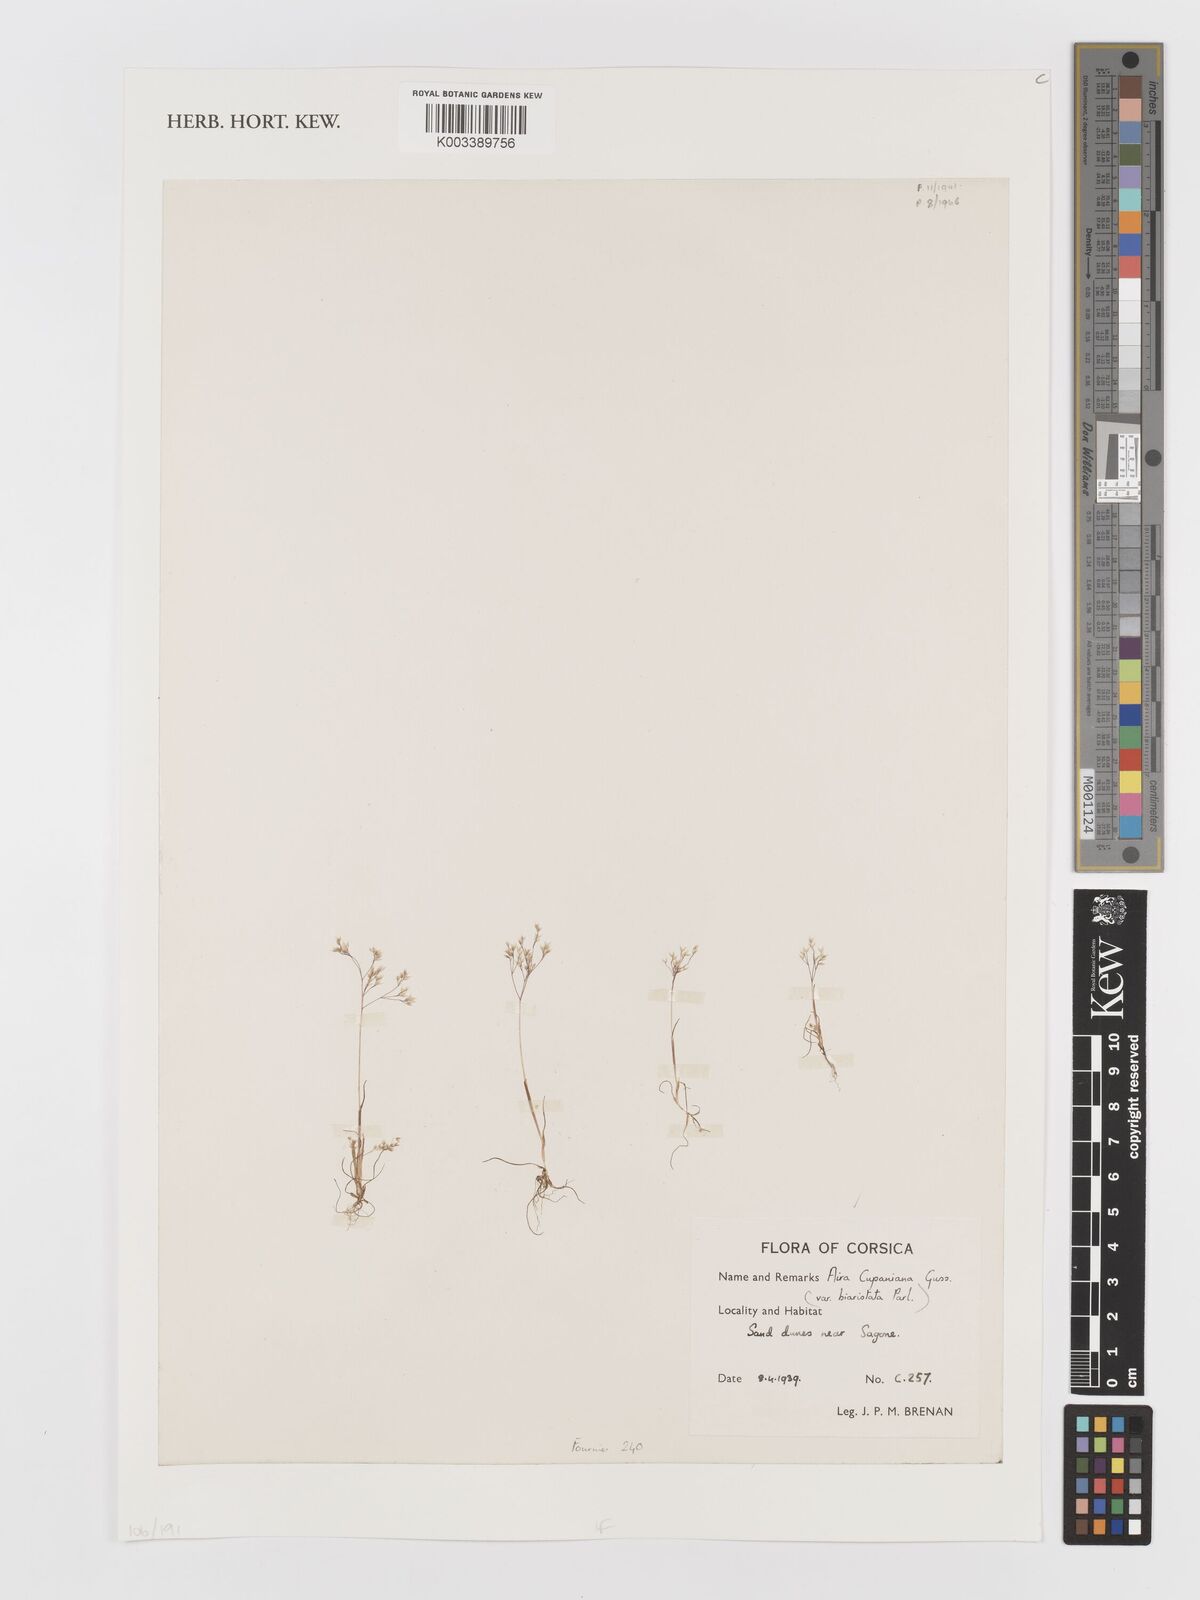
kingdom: Plantae
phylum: Tracheophyta
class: Liliopsida
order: Poales
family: Poaceae
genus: Aira
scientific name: Aira cupaniana
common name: Silver hairgrass
